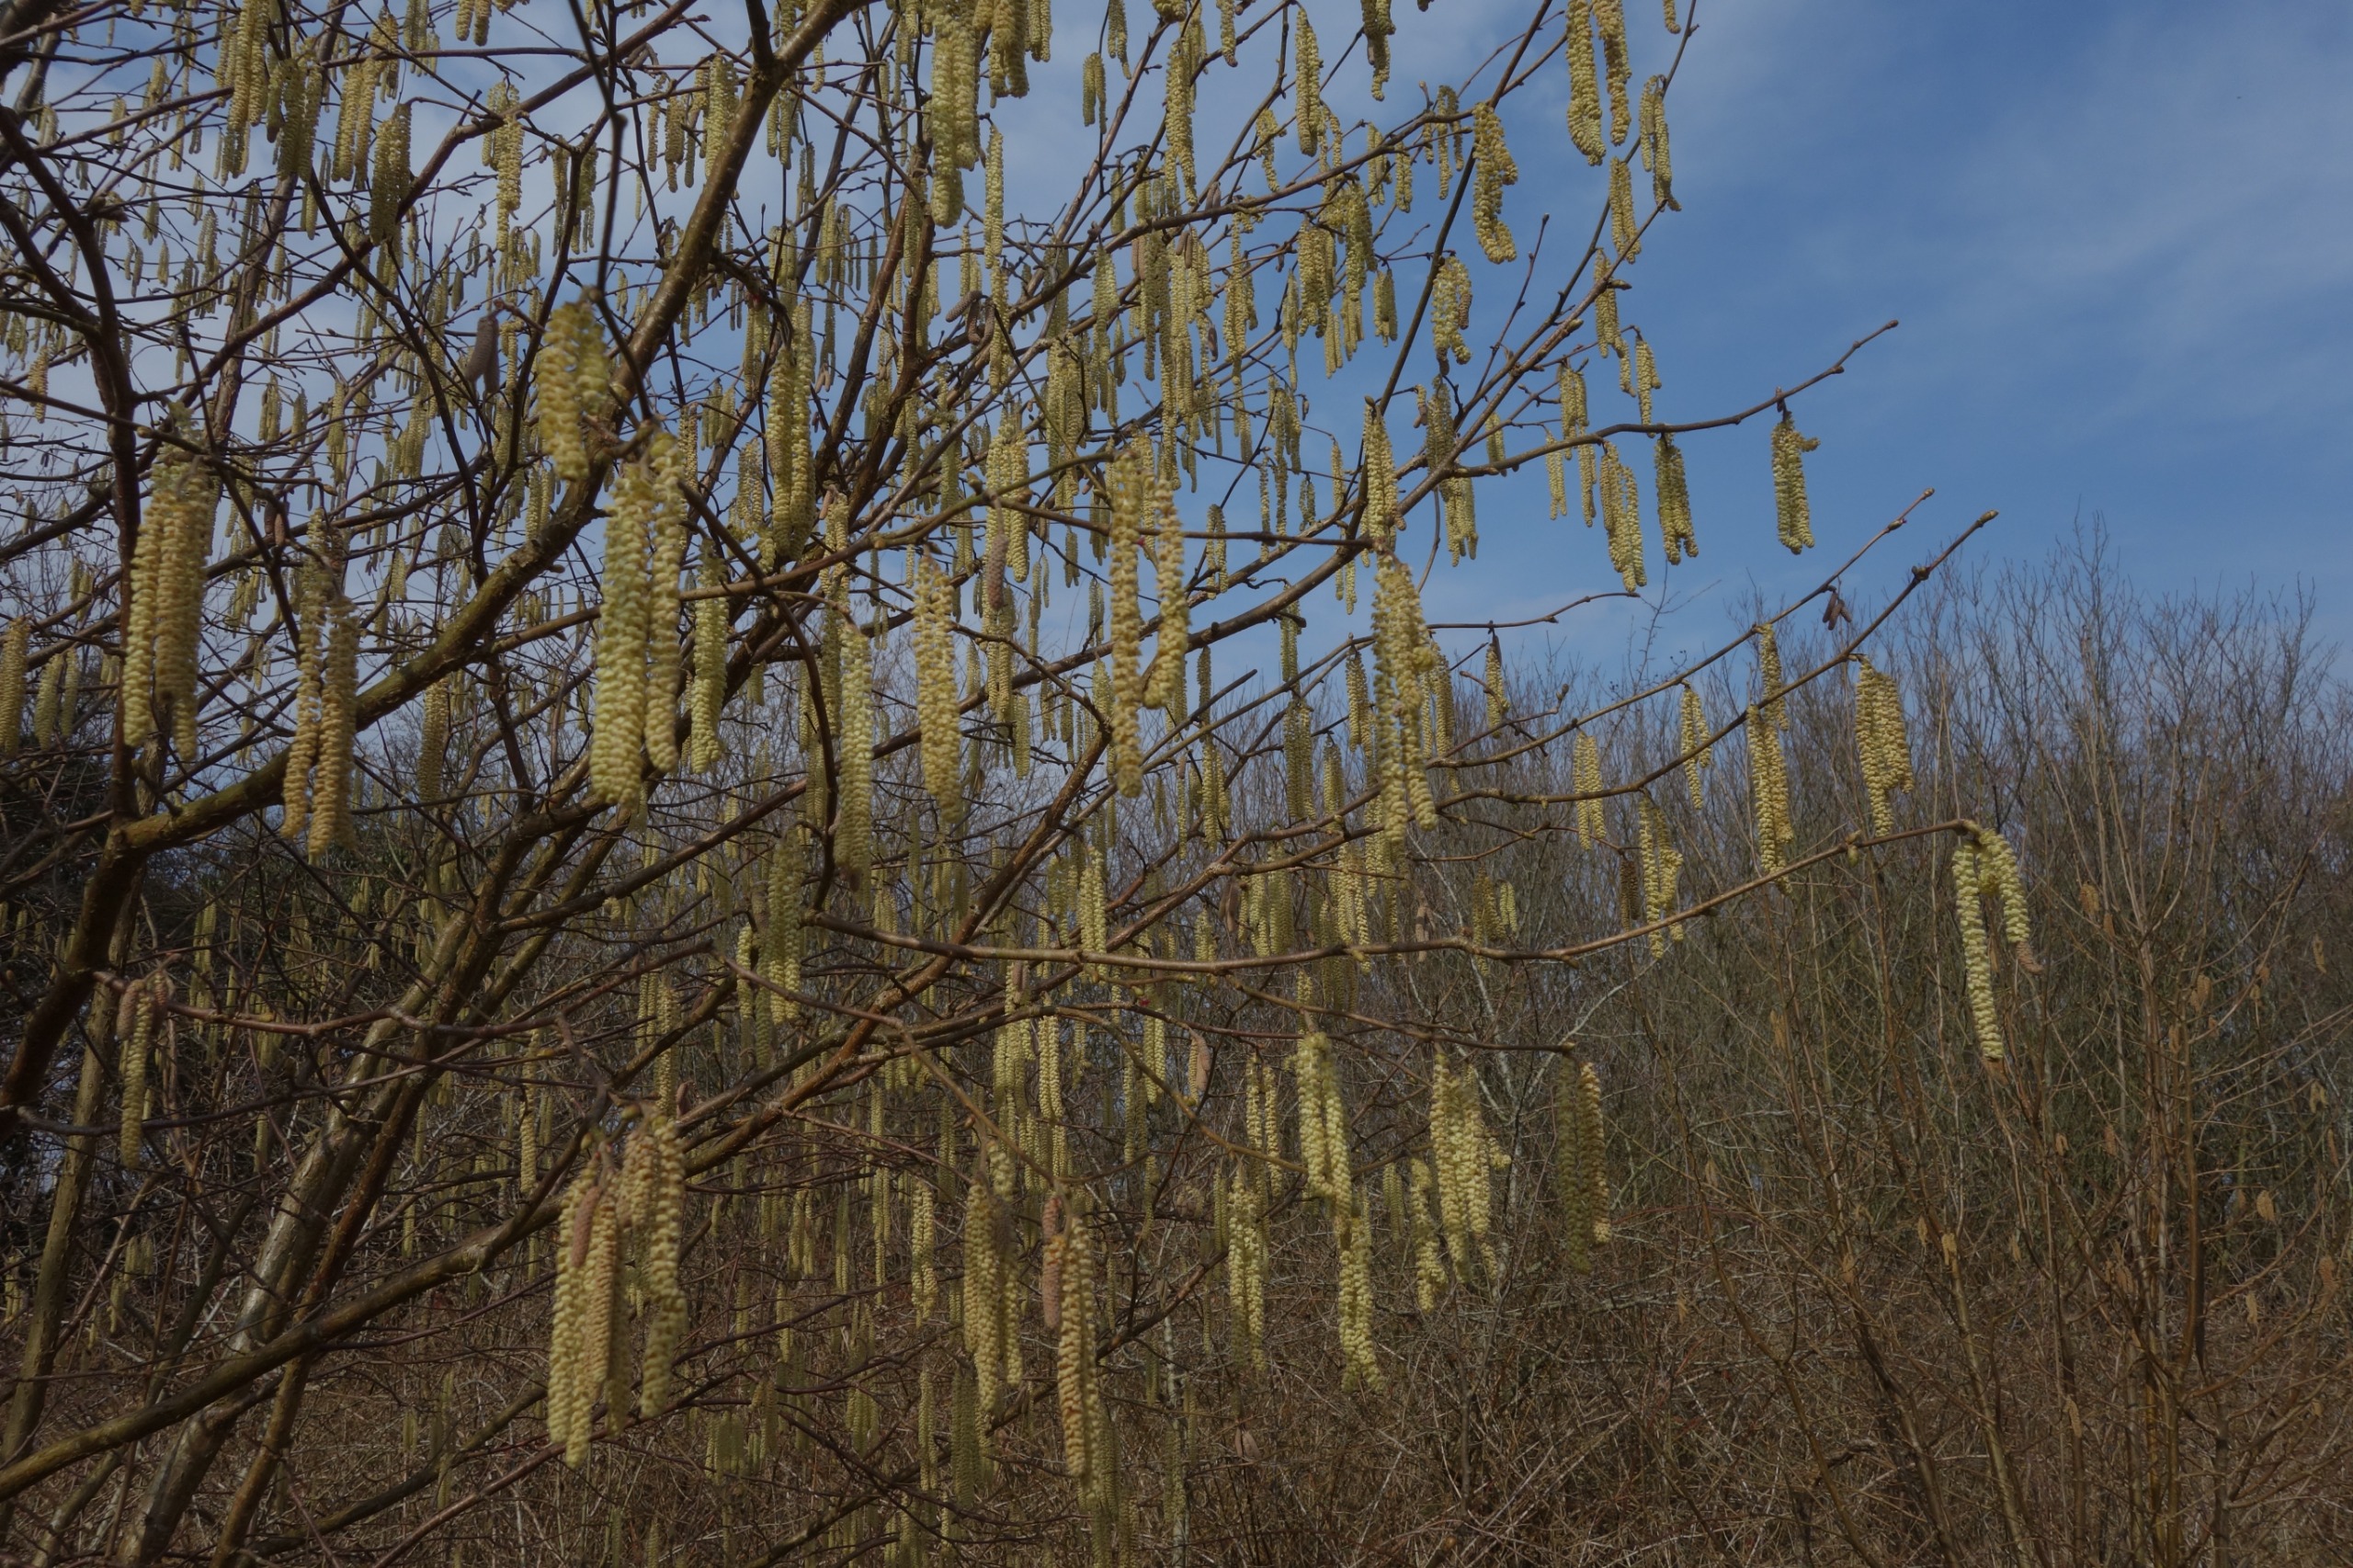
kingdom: Plantae
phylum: Tracheophyta
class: Magnoliopsida
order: Fagales
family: Betulaceae
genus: Corylus
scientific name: Corylus avellana
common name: Hassel
